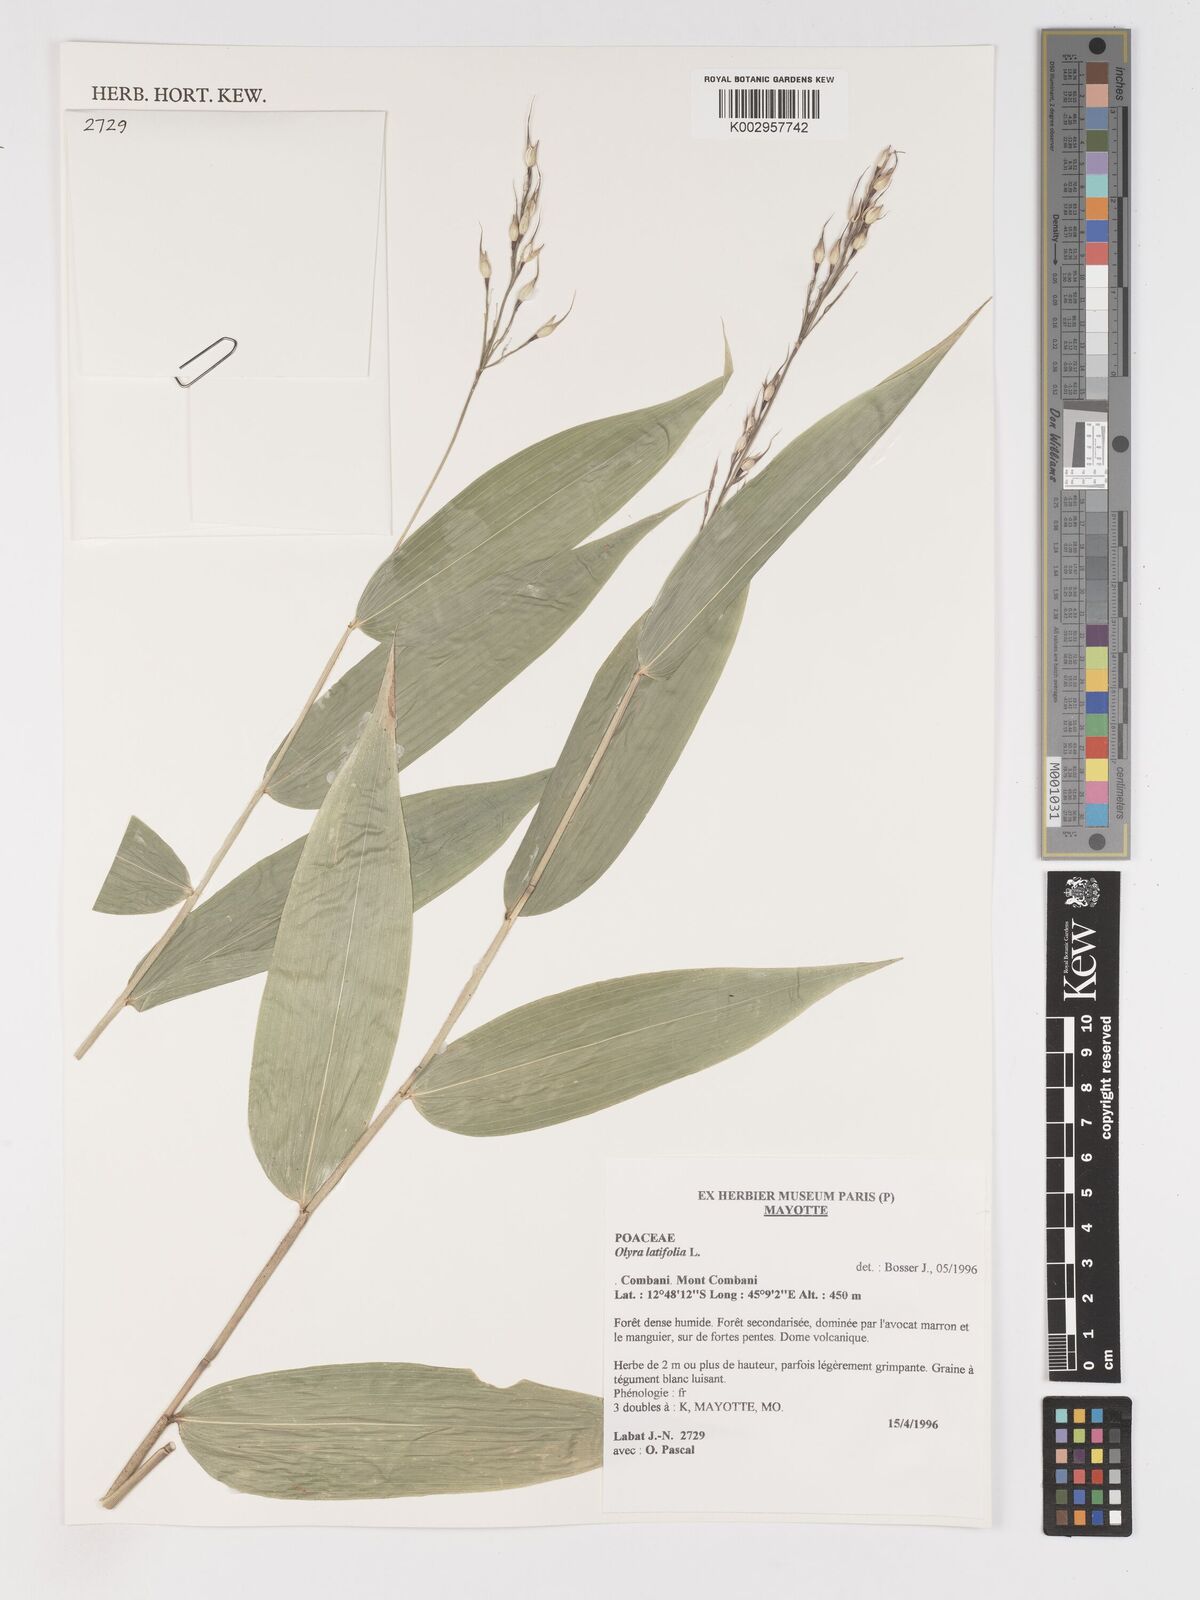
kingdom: Plantae
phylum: Tracheophyta
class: Liliopsida
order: Poales
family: Poaceae
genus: Olyra
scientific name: Olyra latifolia
